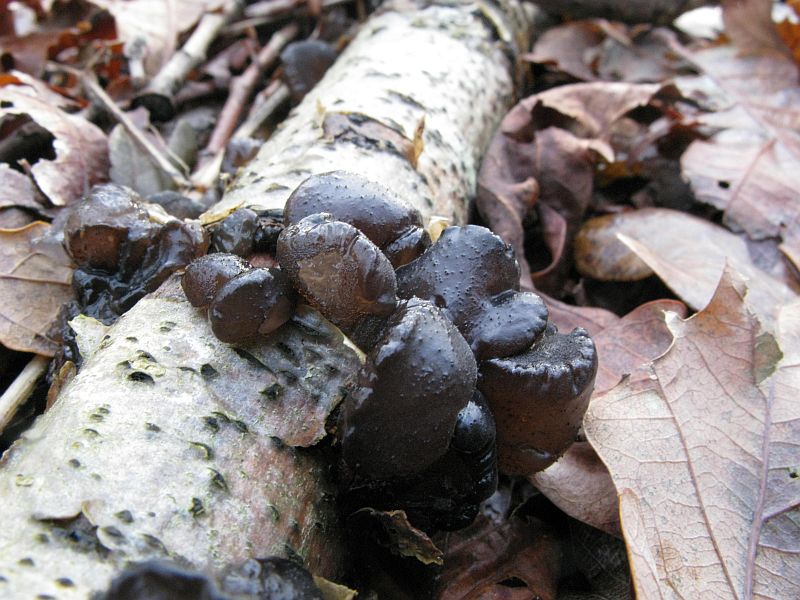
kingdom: Fungi
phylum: Basidiomycota
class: Agaricomycetes
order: Auriculariales
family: Auriculariaceae
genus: Exidia
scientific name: Exidia glandulosa
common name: ege-bævretop
